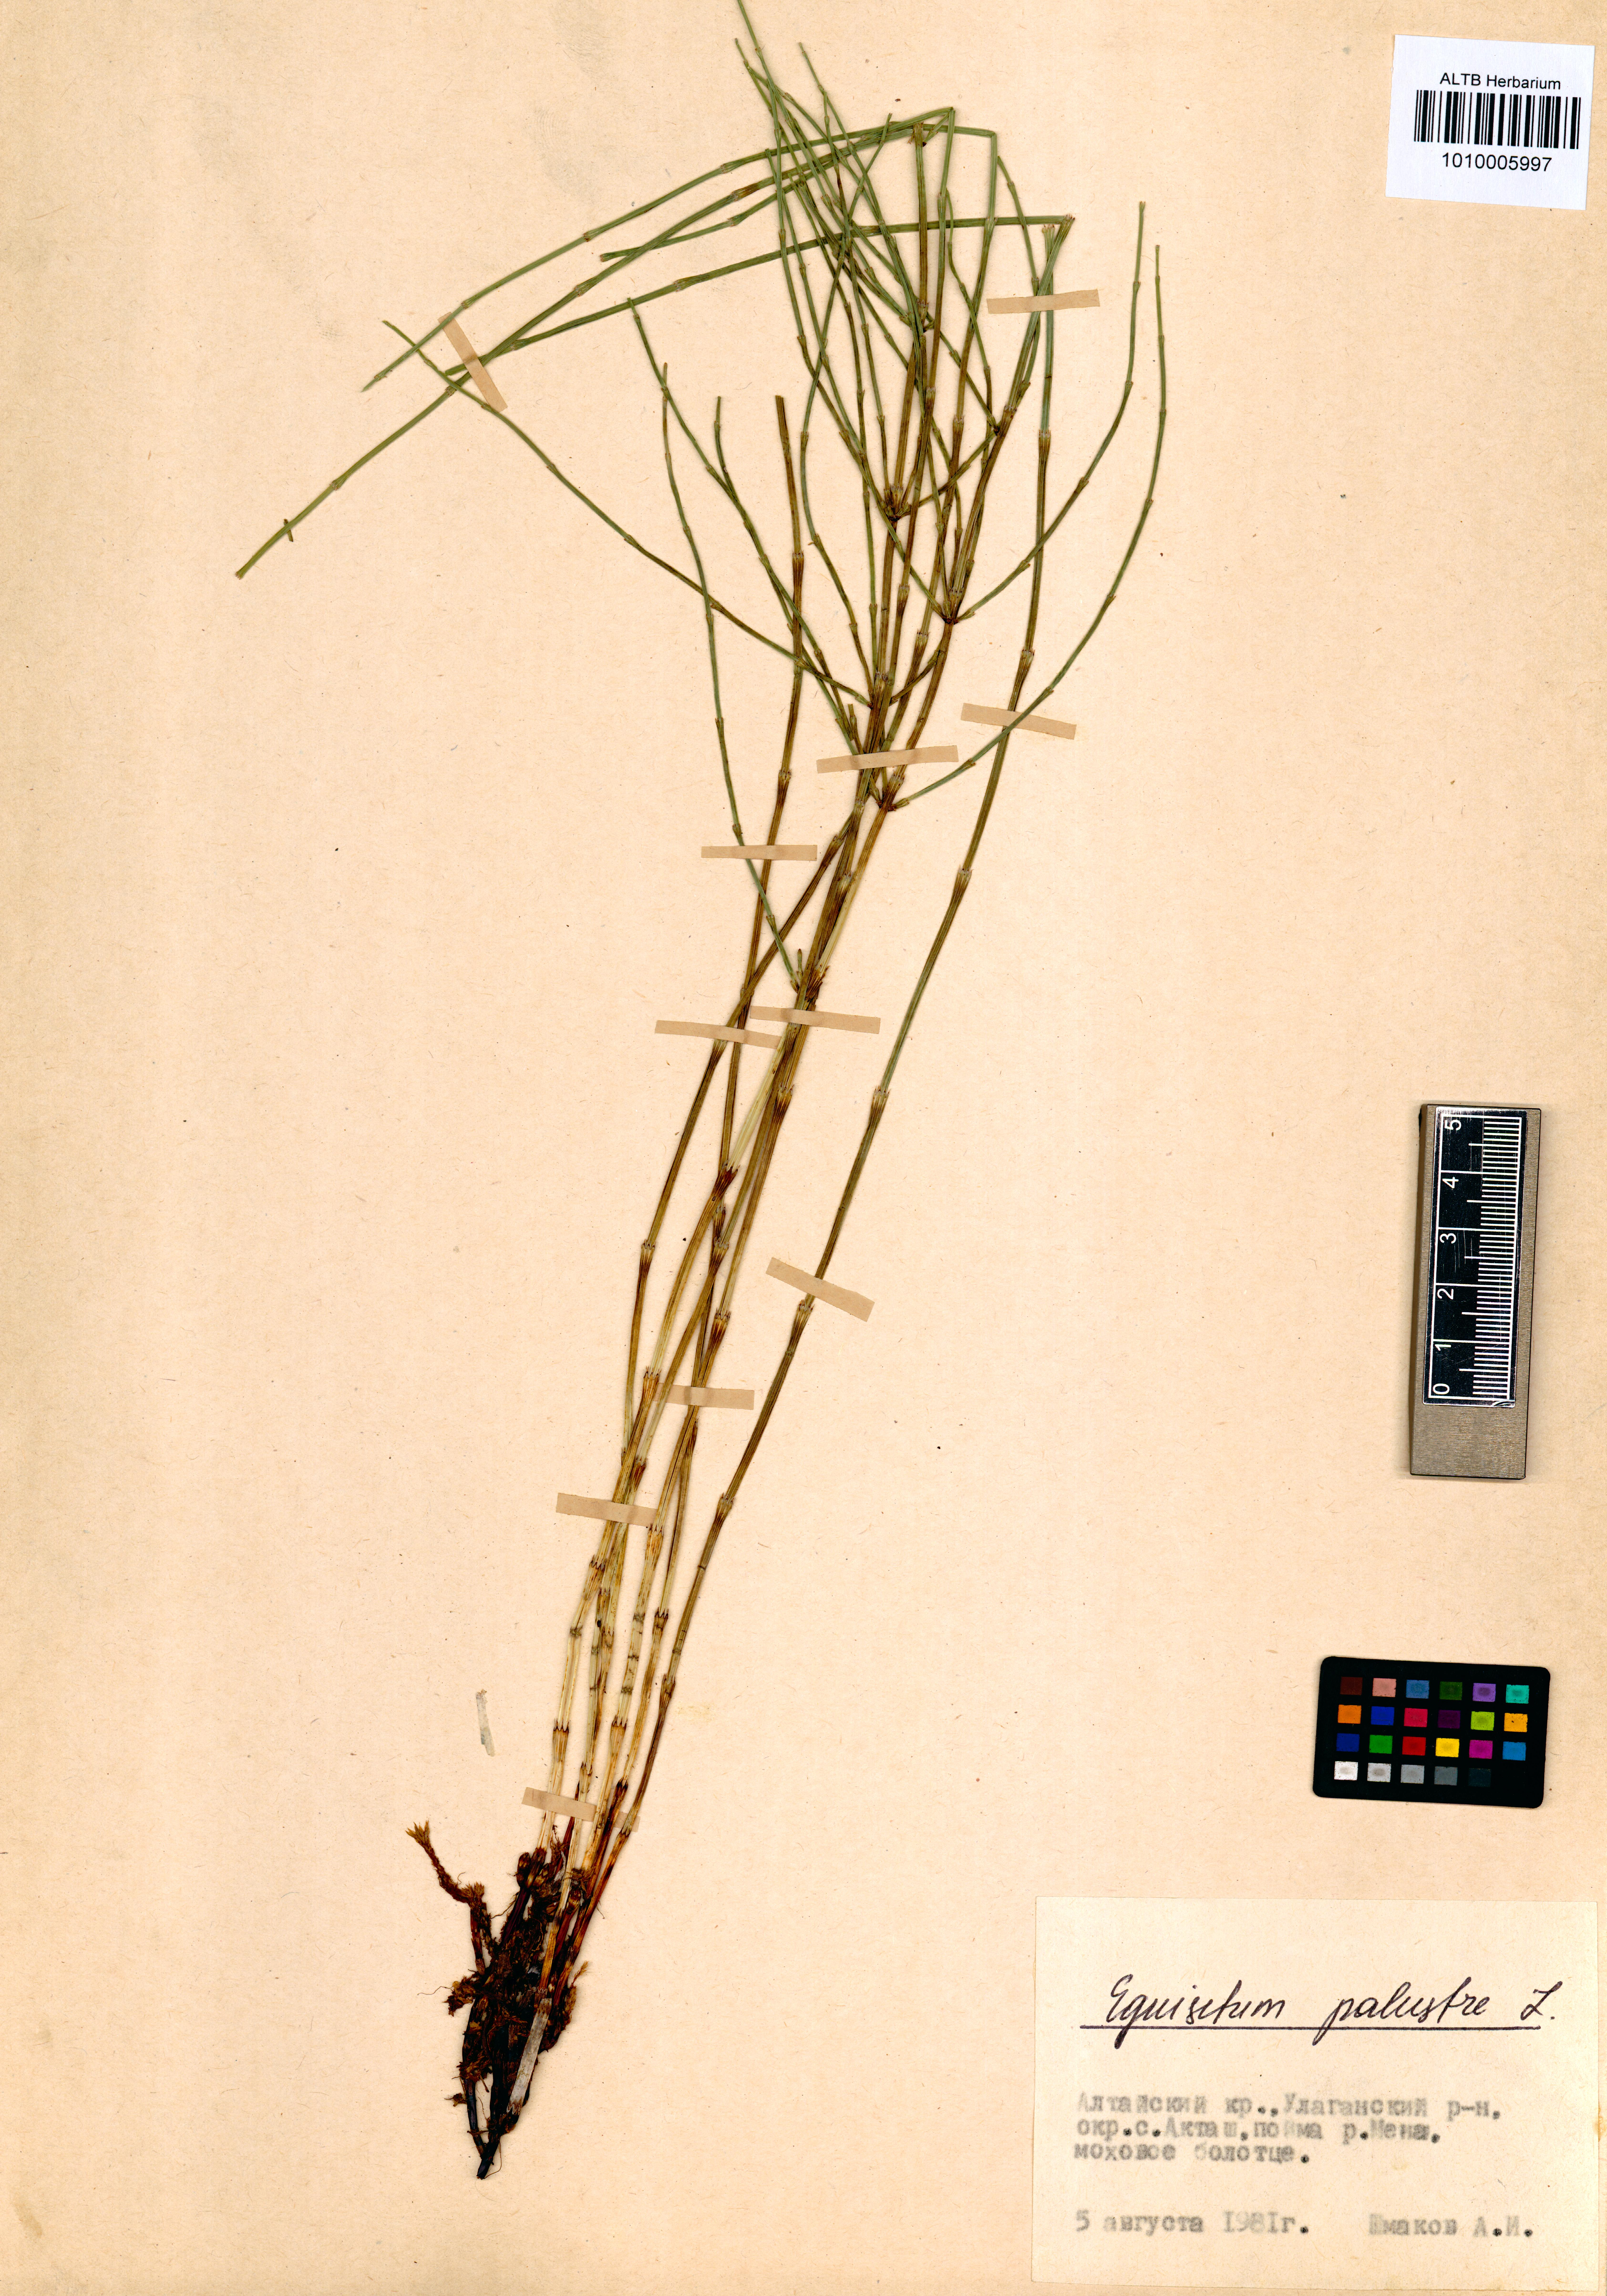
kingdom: Plantae
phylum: Tracheophyta
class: Polypodiopsida
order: Equisetales
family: Equisetaceae
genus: Equisetum
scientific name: Equisetum palustre
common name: Marsh horsetail
